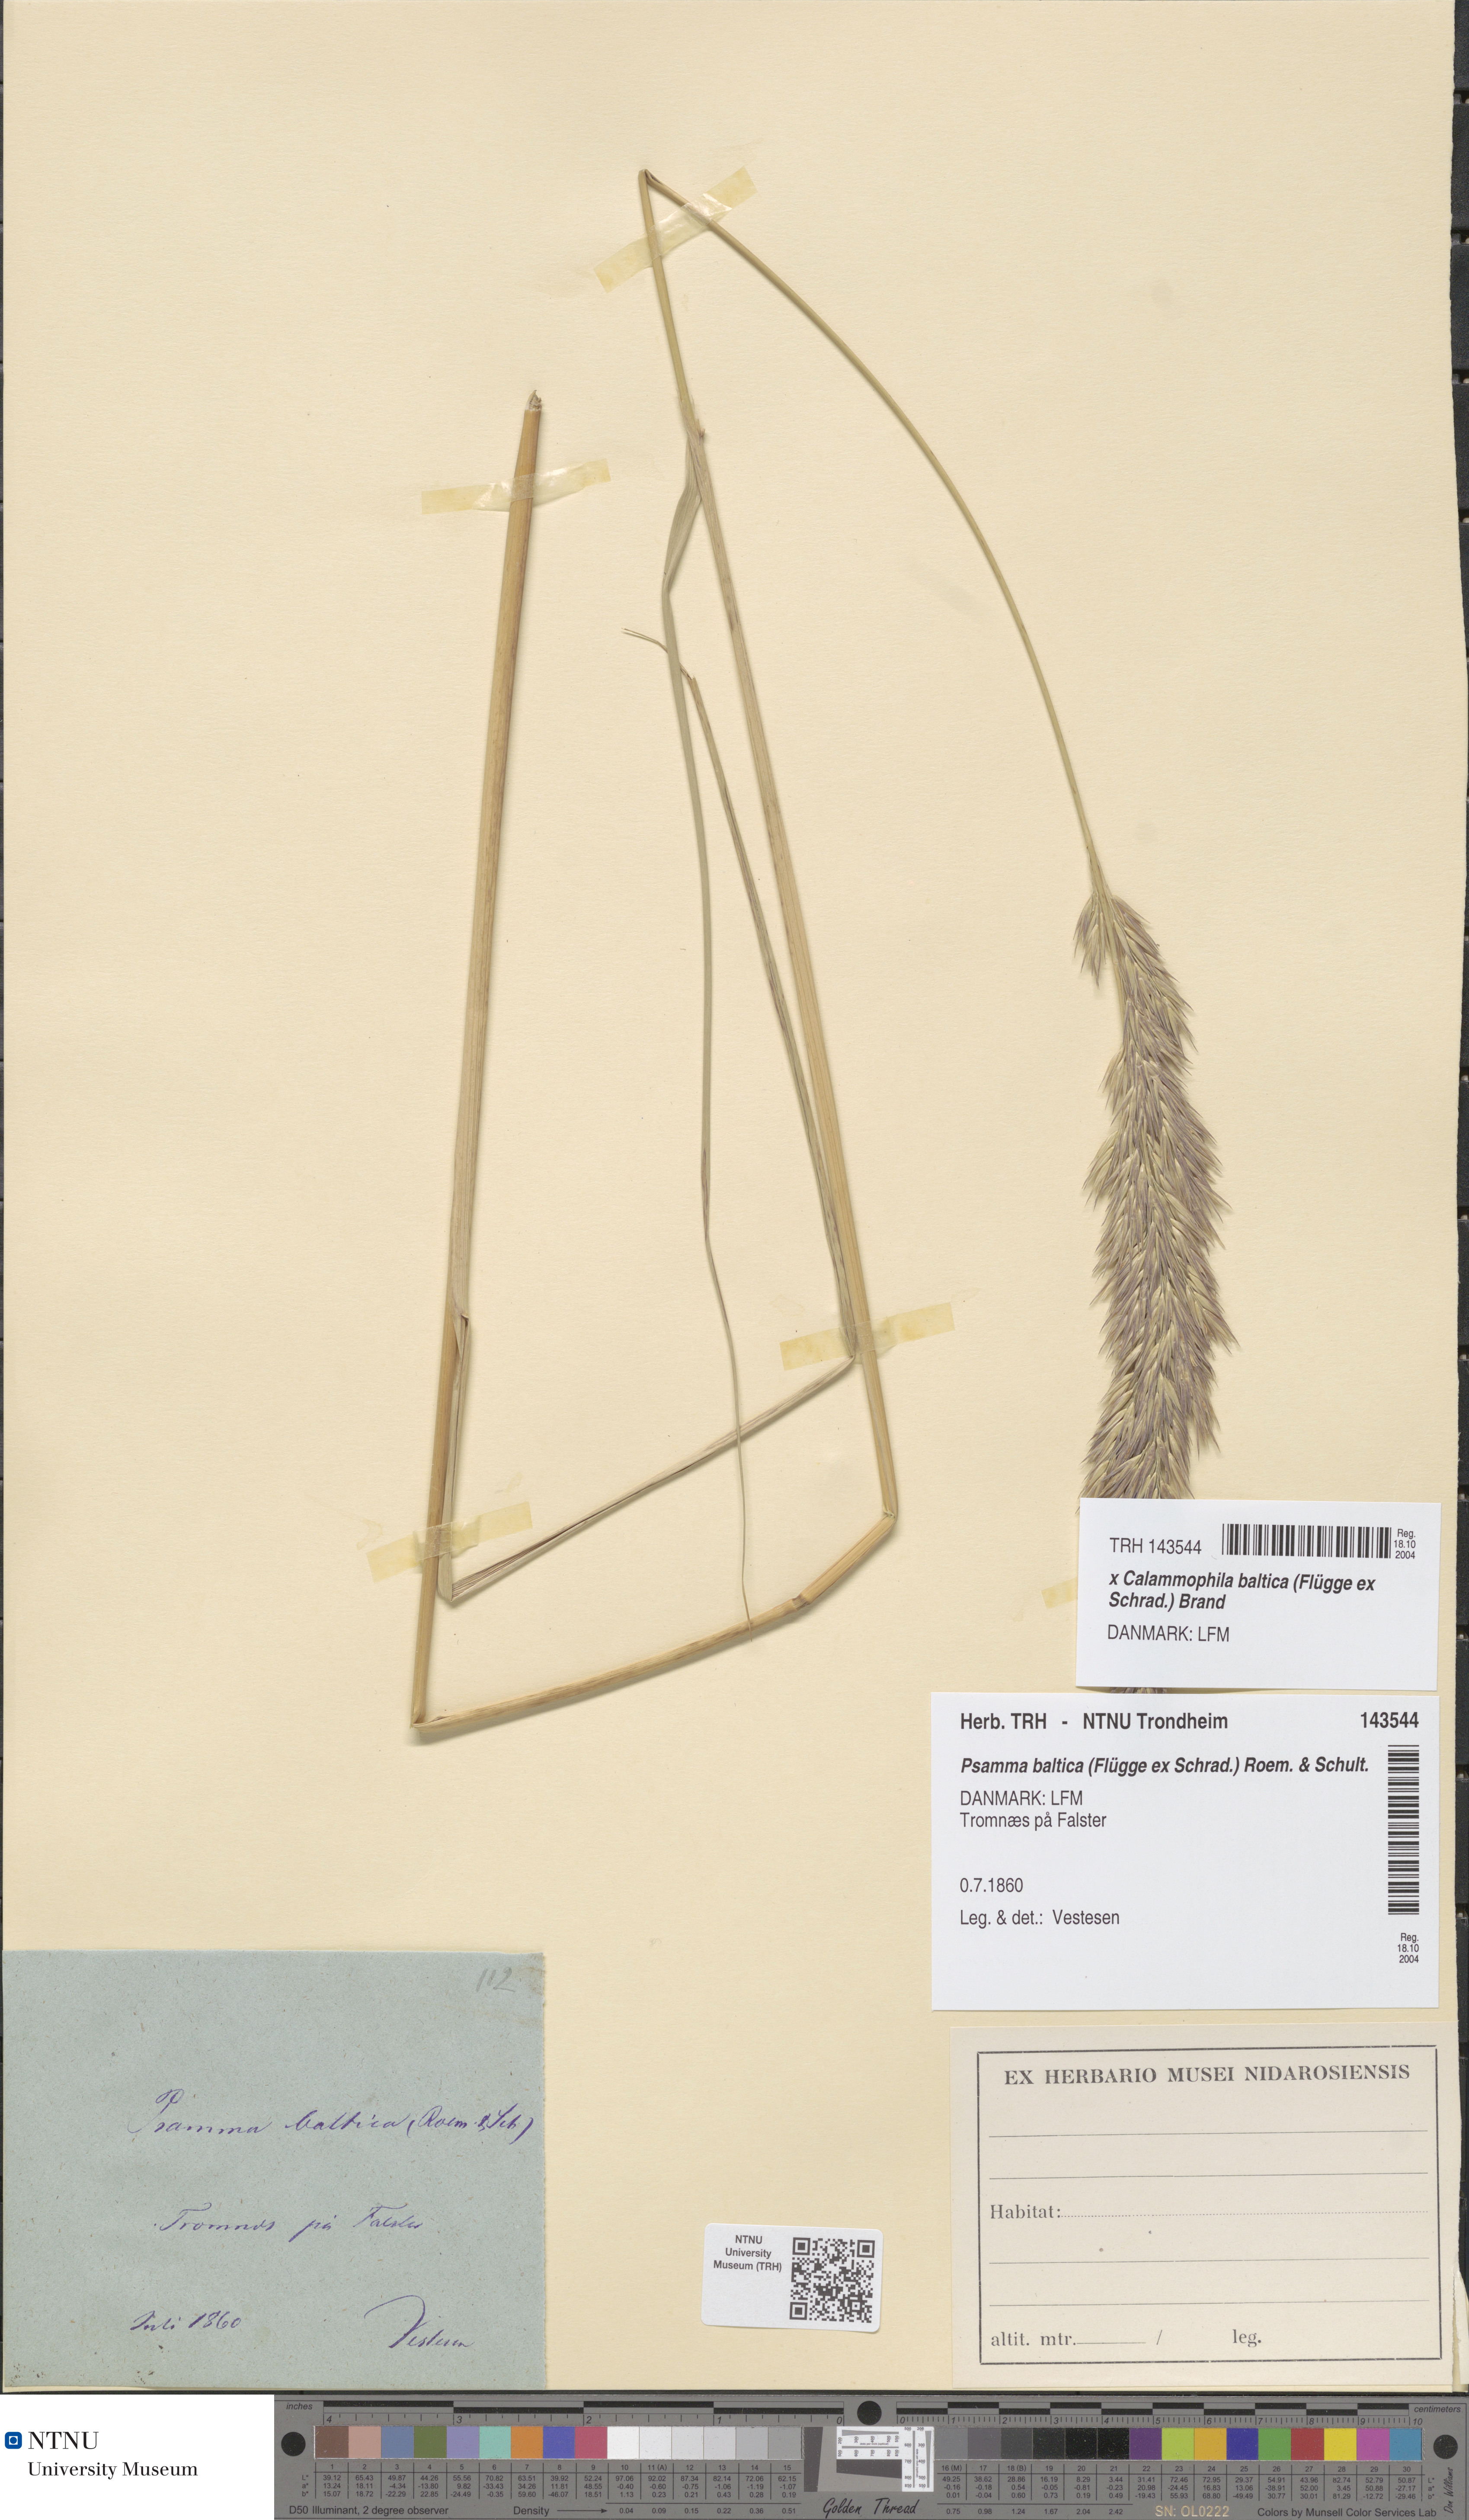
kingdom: Plantae
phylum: Tracheophyta
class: Liliopsida
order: Poales
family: Poaceae
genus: Calamagrostis
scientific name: Calamagrostis baltica
